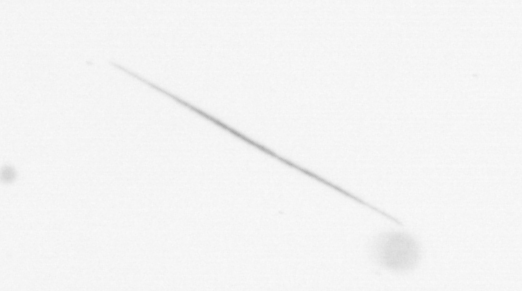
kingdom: Chromista
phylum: Ochrophyta
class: Bacillariophyceae
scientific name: Bacillariophyceae
